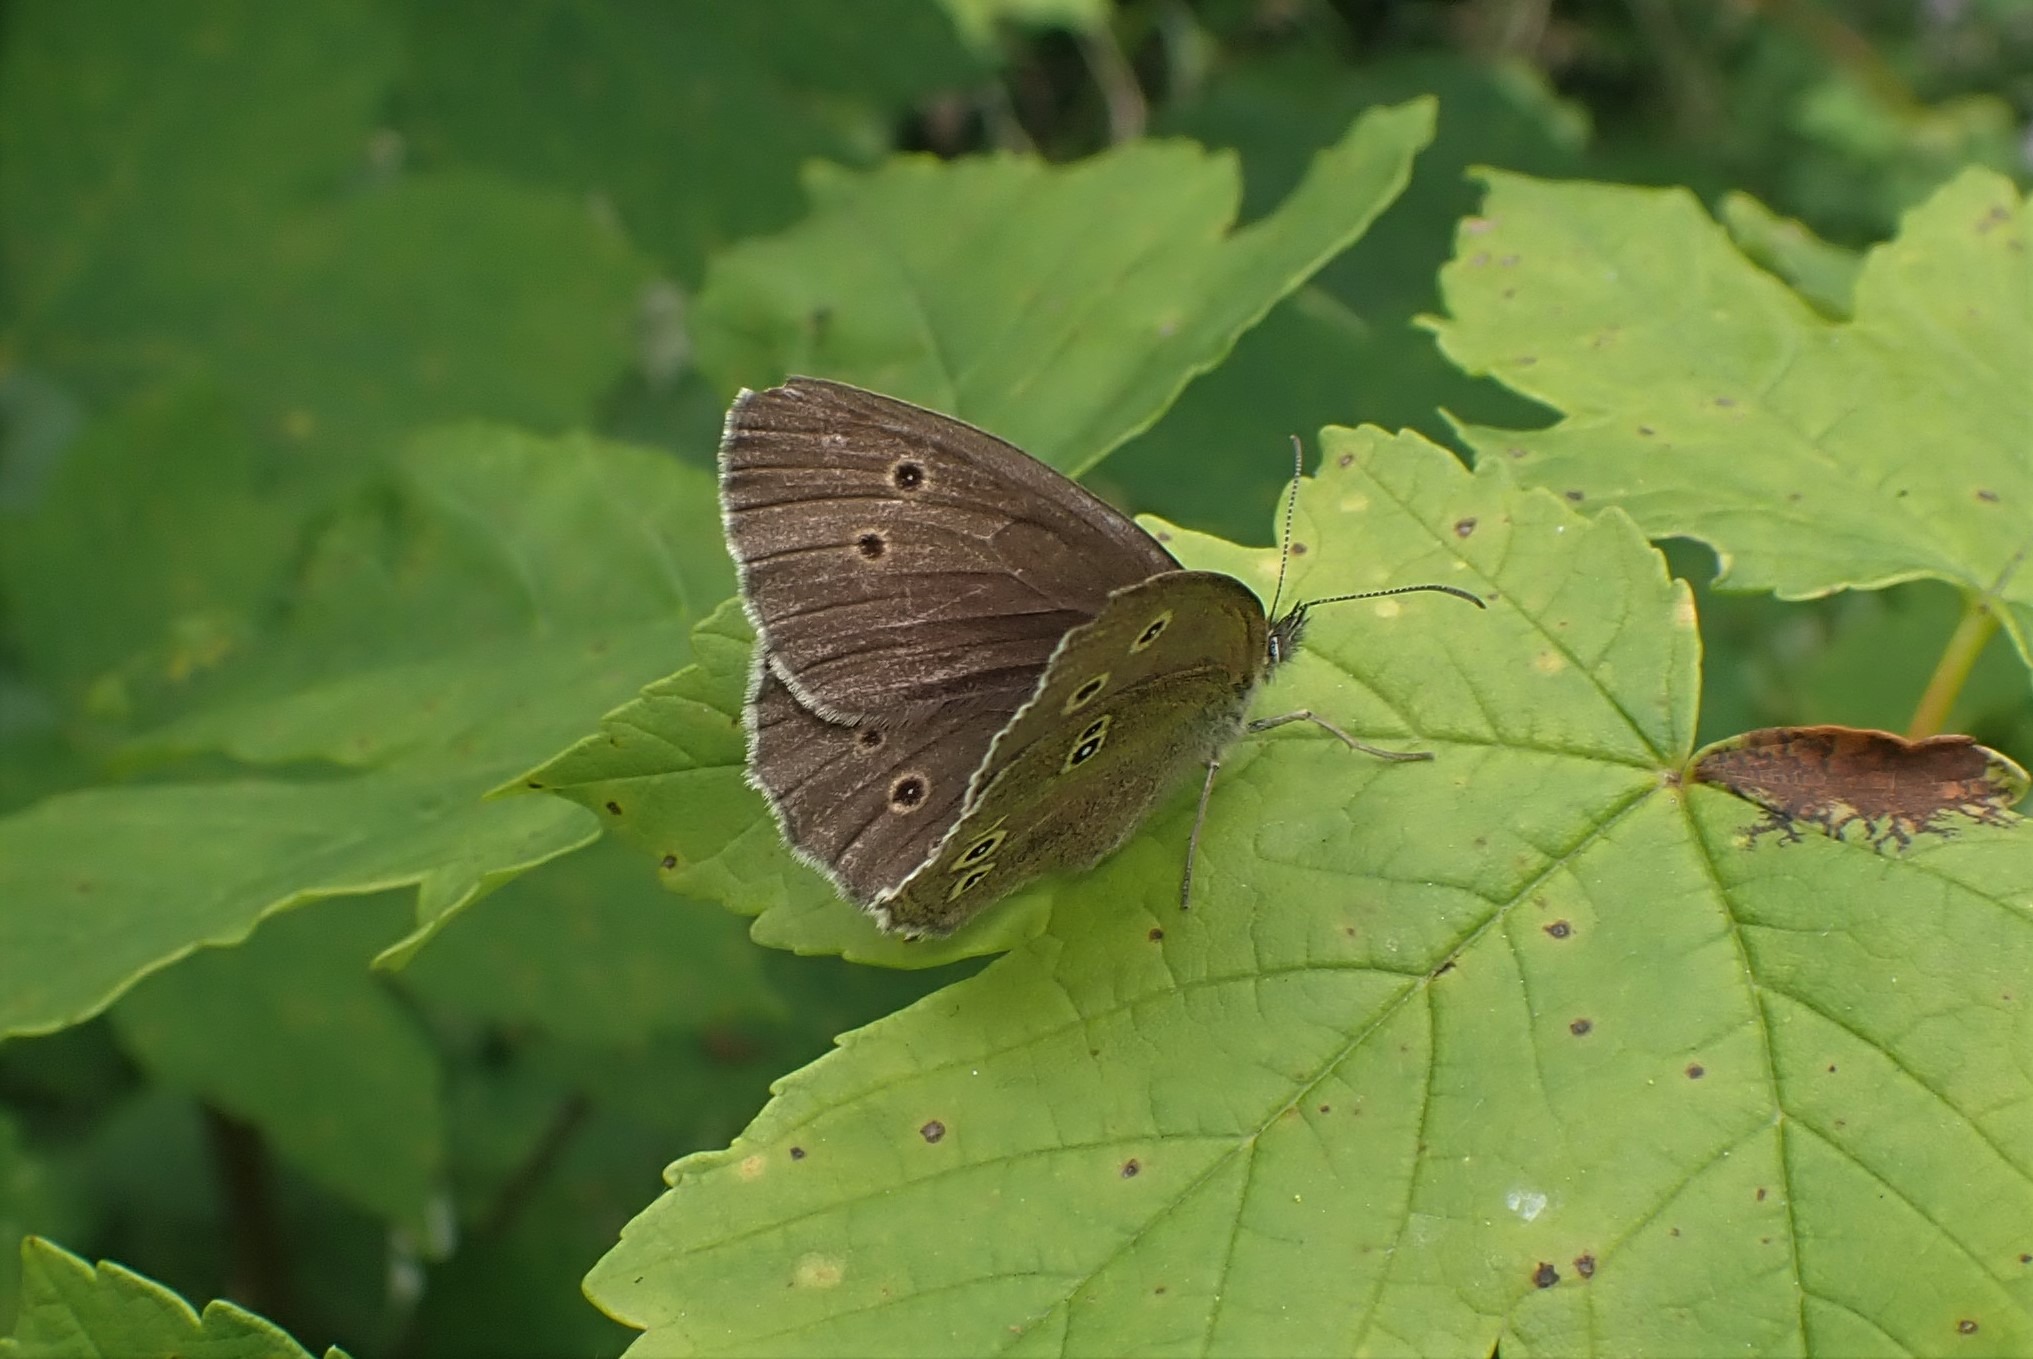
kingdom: Animalia
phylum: Arthropoda
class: Insecta
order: Lepidoptera
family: Nymphalidae
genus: Aphantopus
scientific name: Aphantopus hyperantus
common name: Engrandøje
